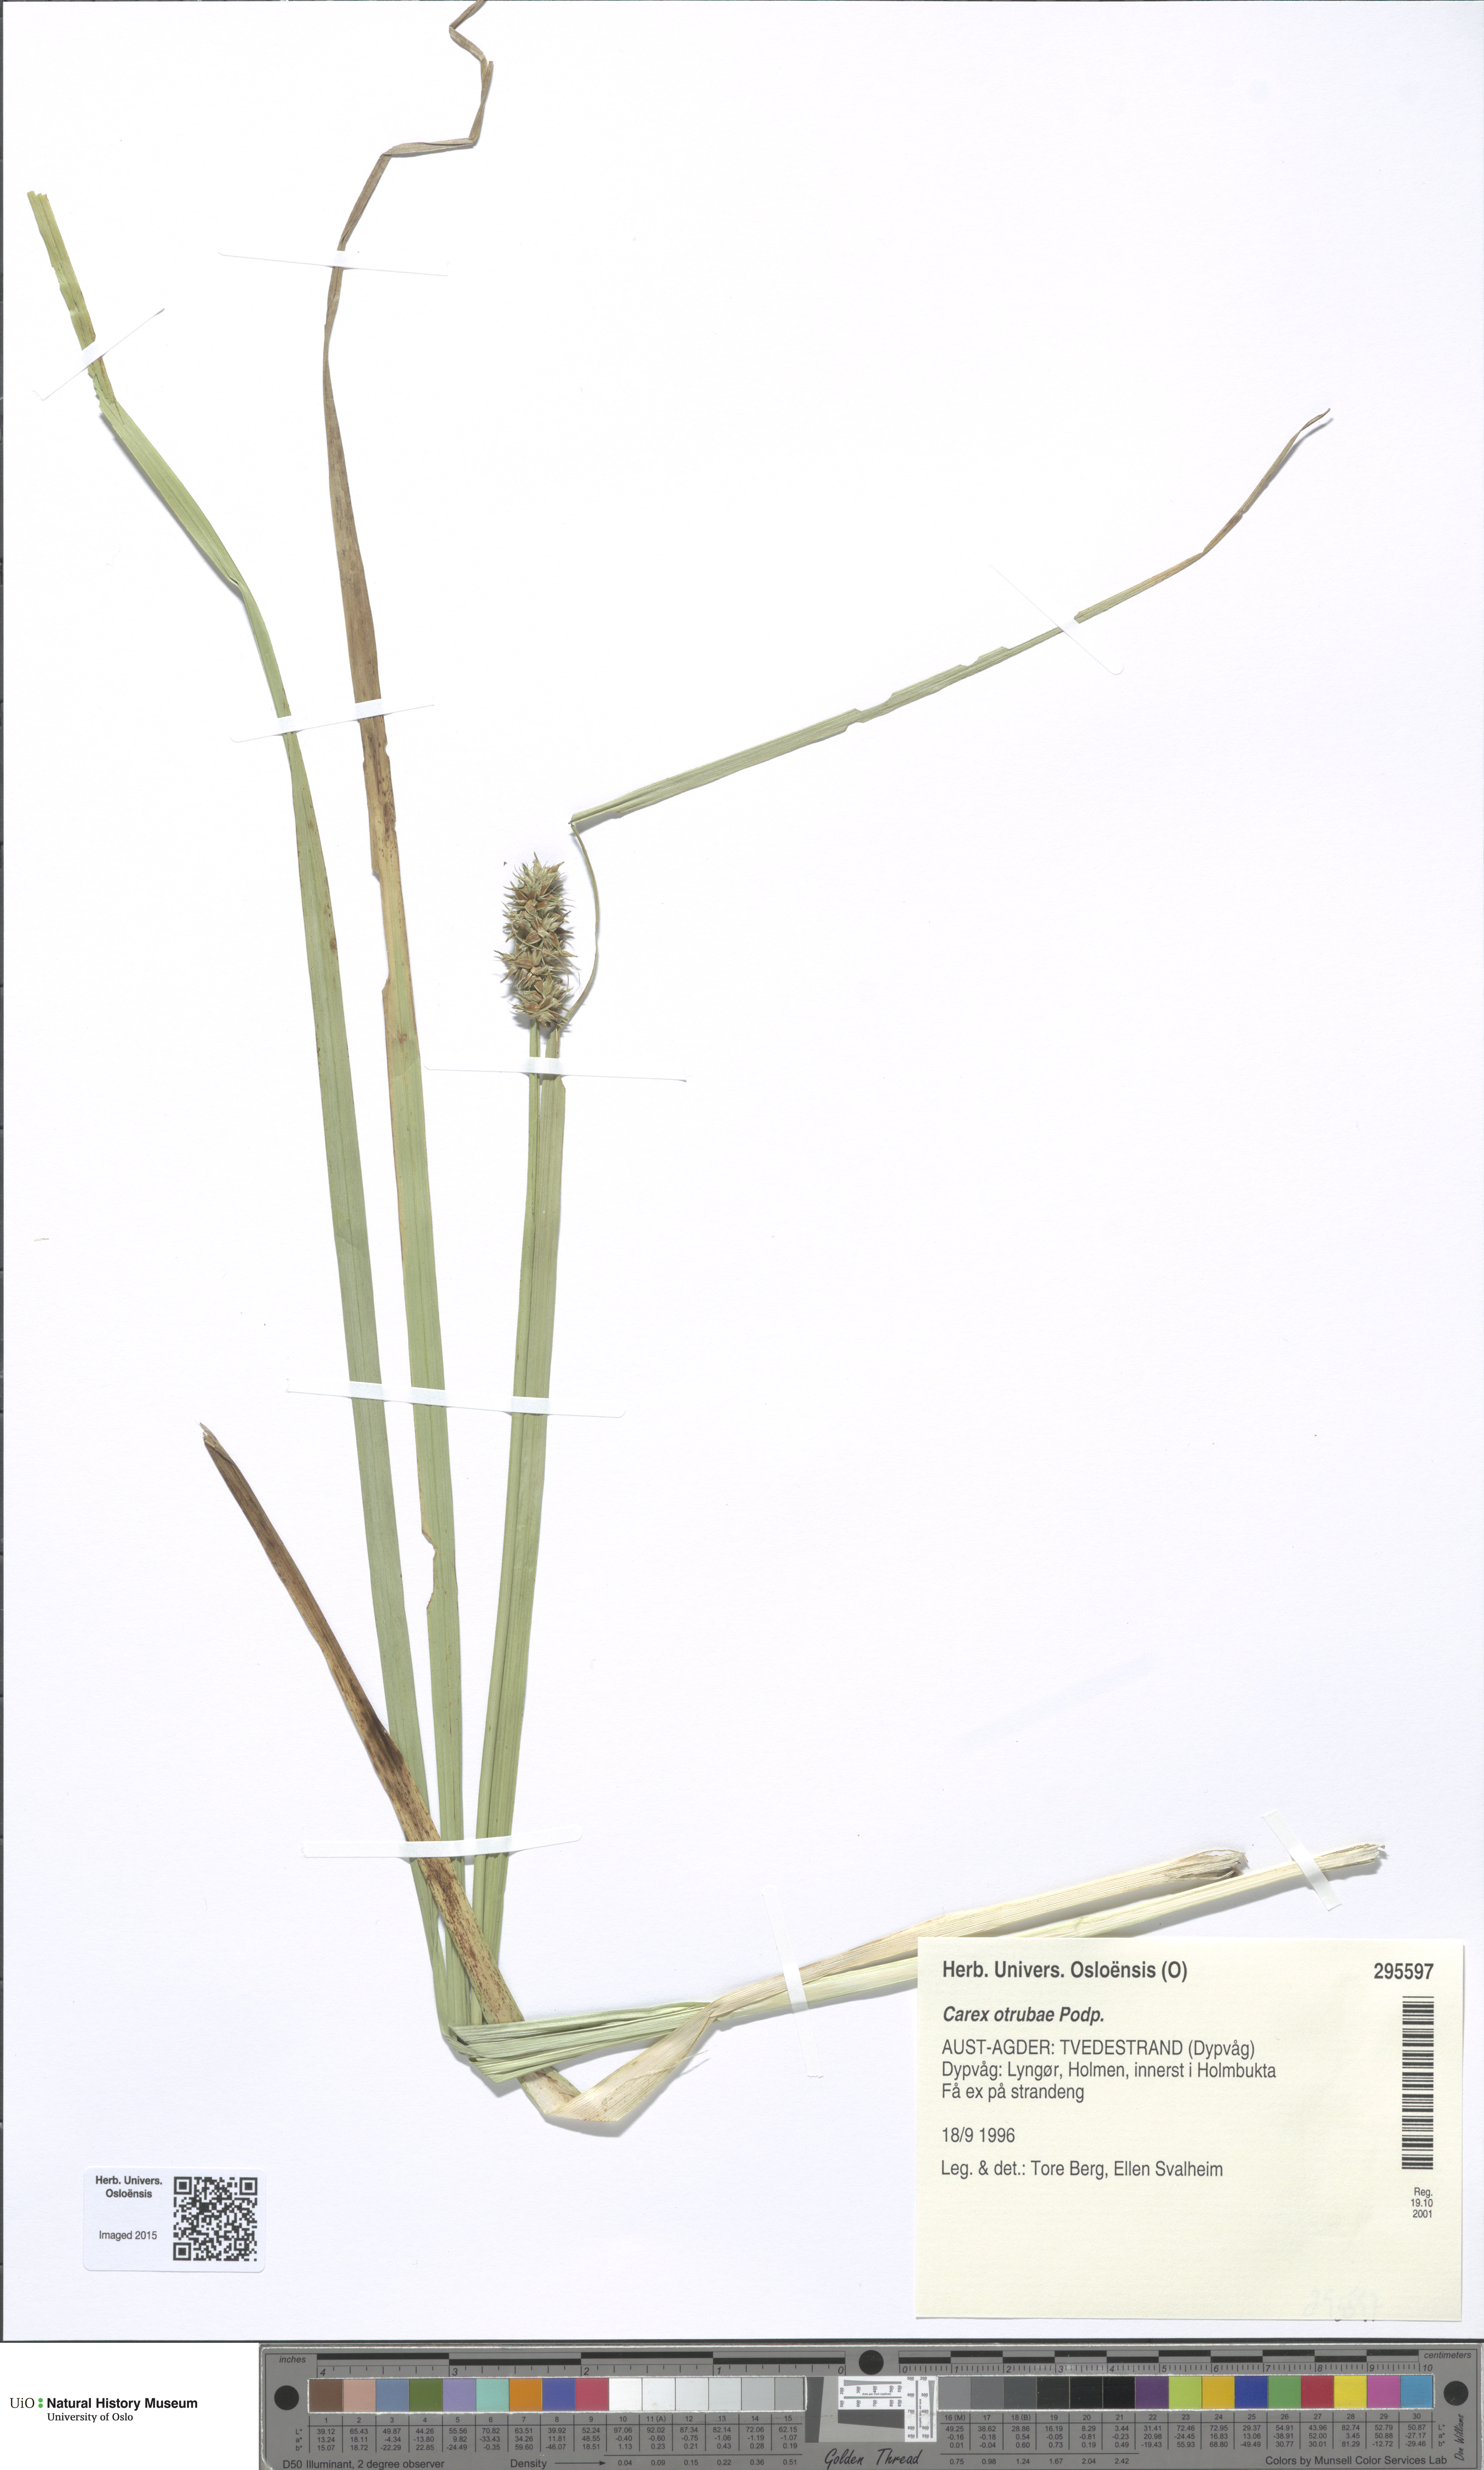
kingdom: Plantae
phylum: Tracheophyta
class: Liliopsida
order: Poales
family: Cyperaceae
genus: Carex
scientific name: Carex otrubae
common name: False fox-sedge
